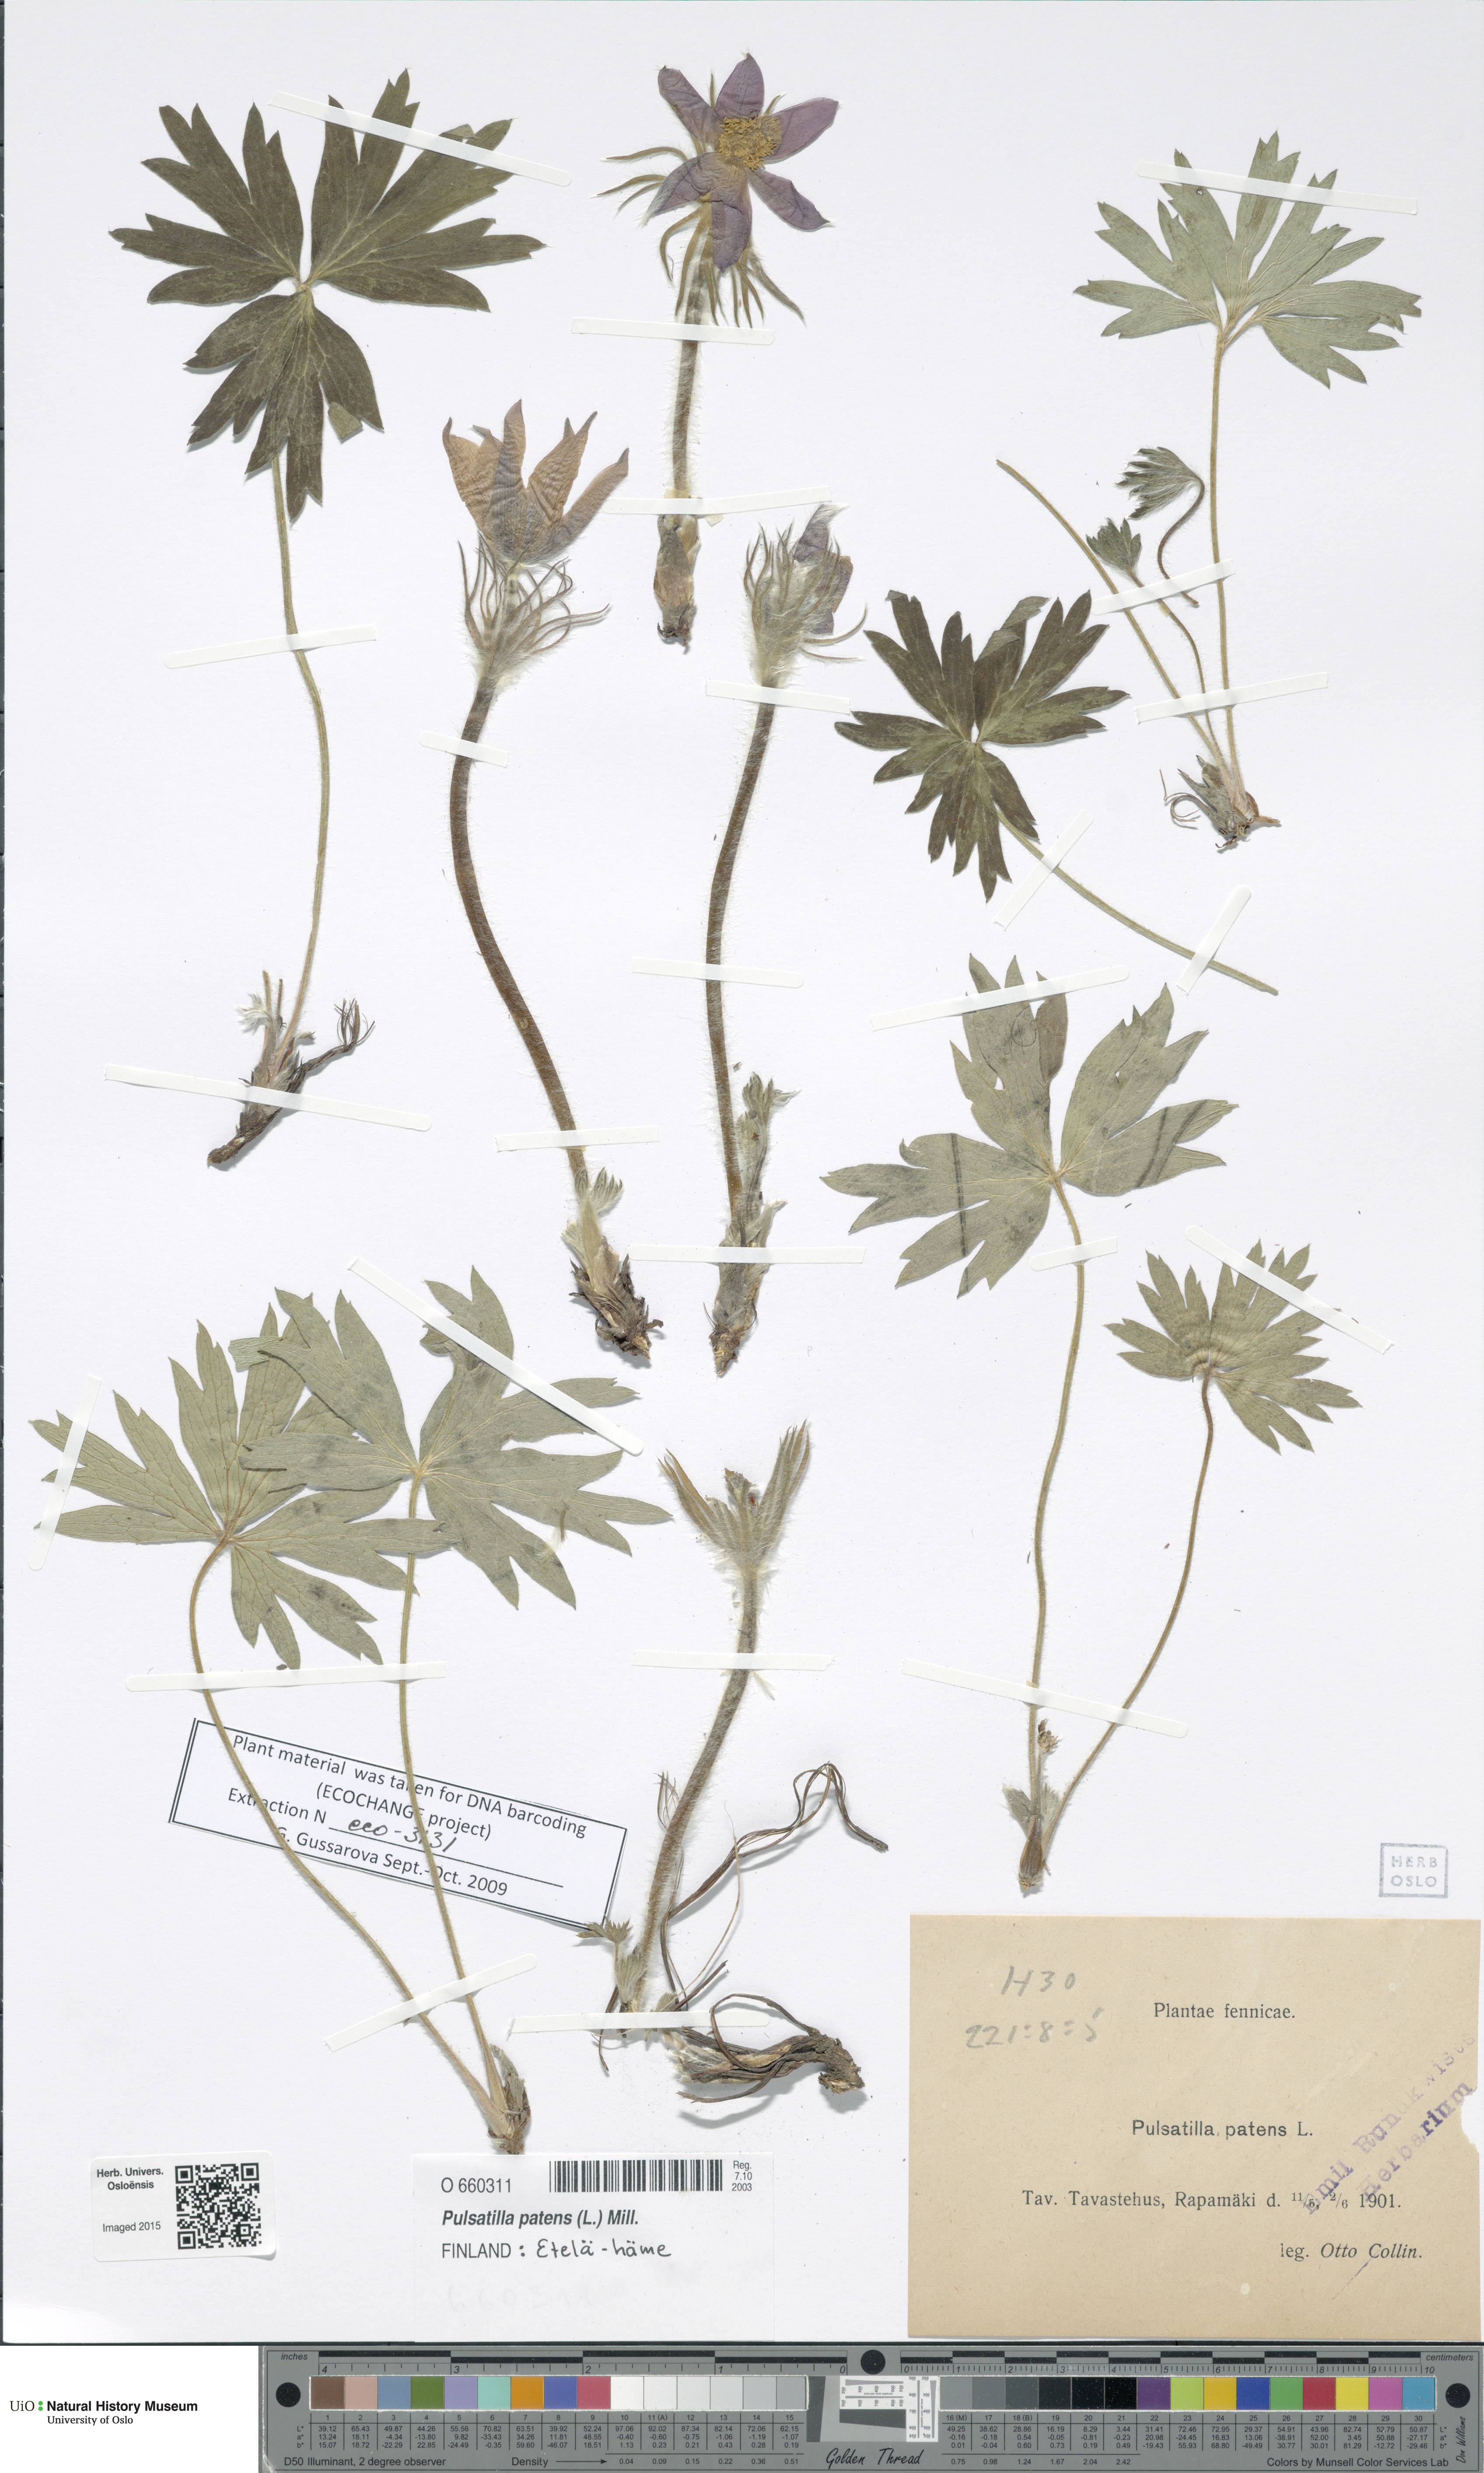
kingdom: Plantae
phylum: Tracheophyta
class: Magnoliopsida
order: Ranunculales
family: Ranunculaceae
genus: Pulsatilla
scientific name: Pulsatilla patens
